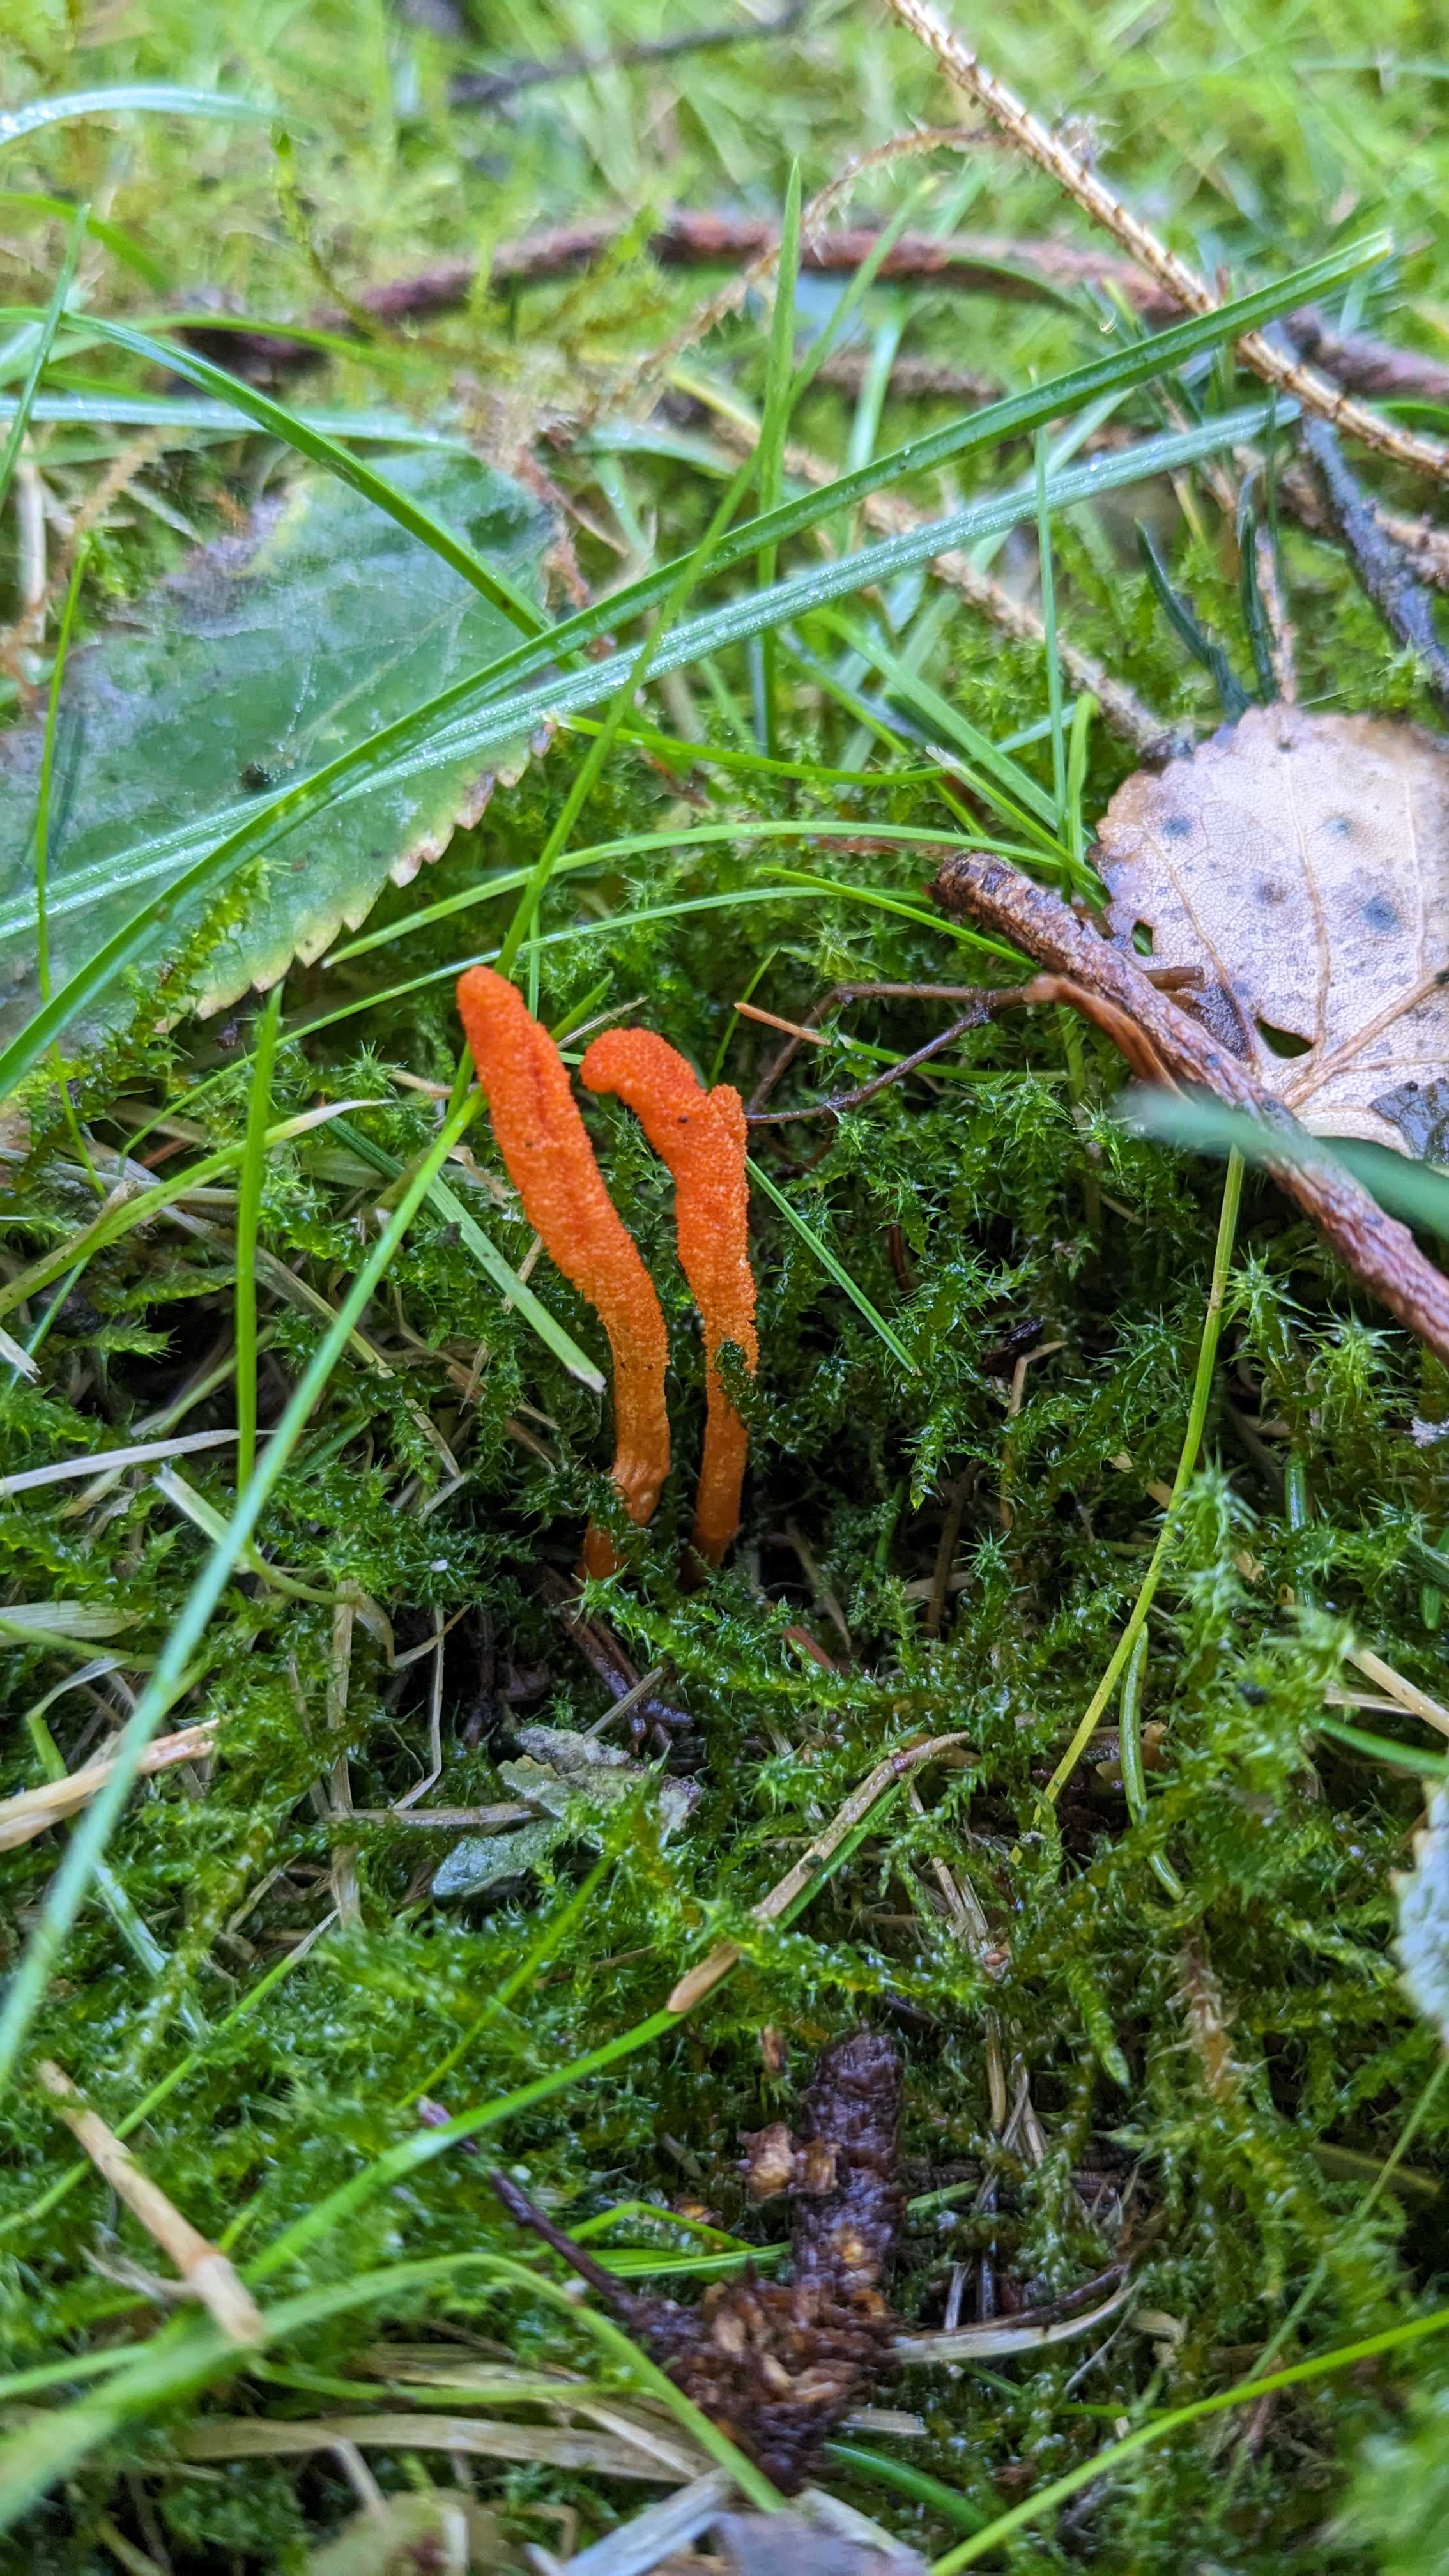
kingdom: Fungi
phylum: Ascomycota
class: Sordariomycetes
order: Hypocreales
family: Cordycipitaceae
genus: Cordyceps
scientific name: Cordyceps militaris
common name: puppe-snyltekølle
